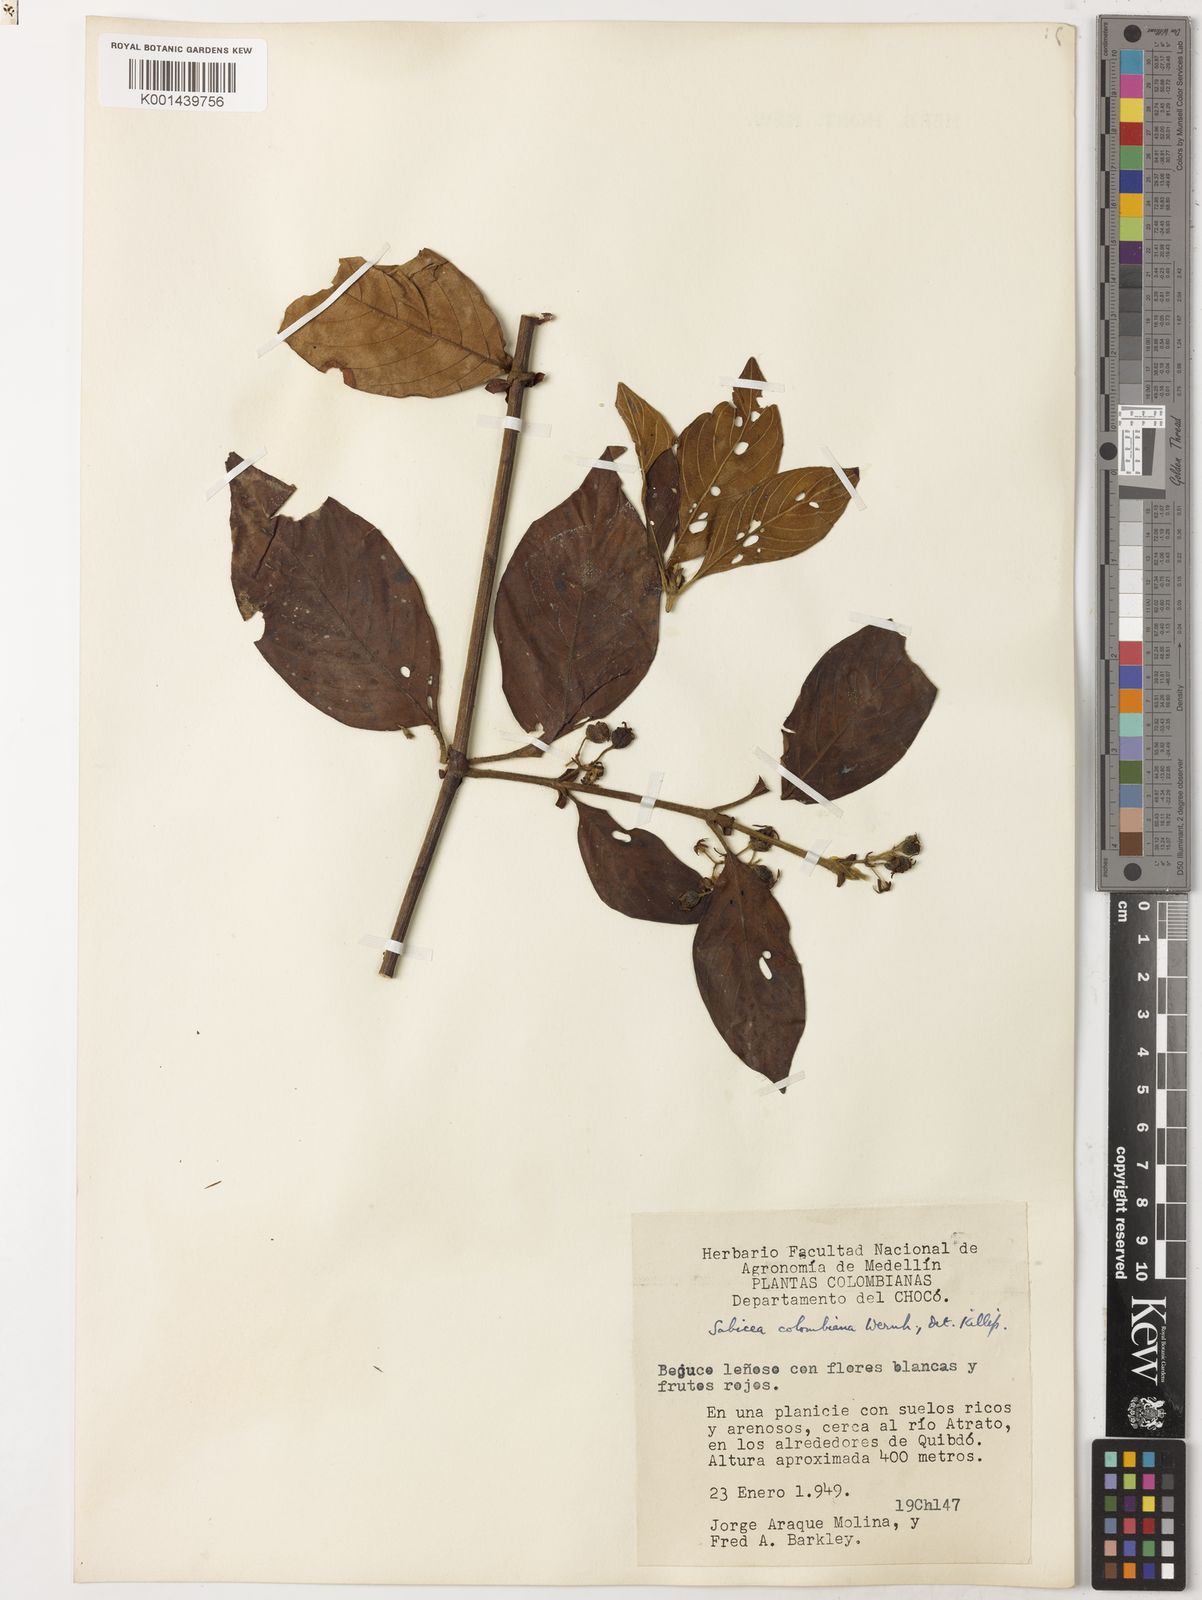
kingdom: Plantae
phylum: Tracheophyta
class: Magnoliopsida
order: Gentianales
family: Rubiaceae
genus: Sabicea
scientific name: Sabicea panamensis
